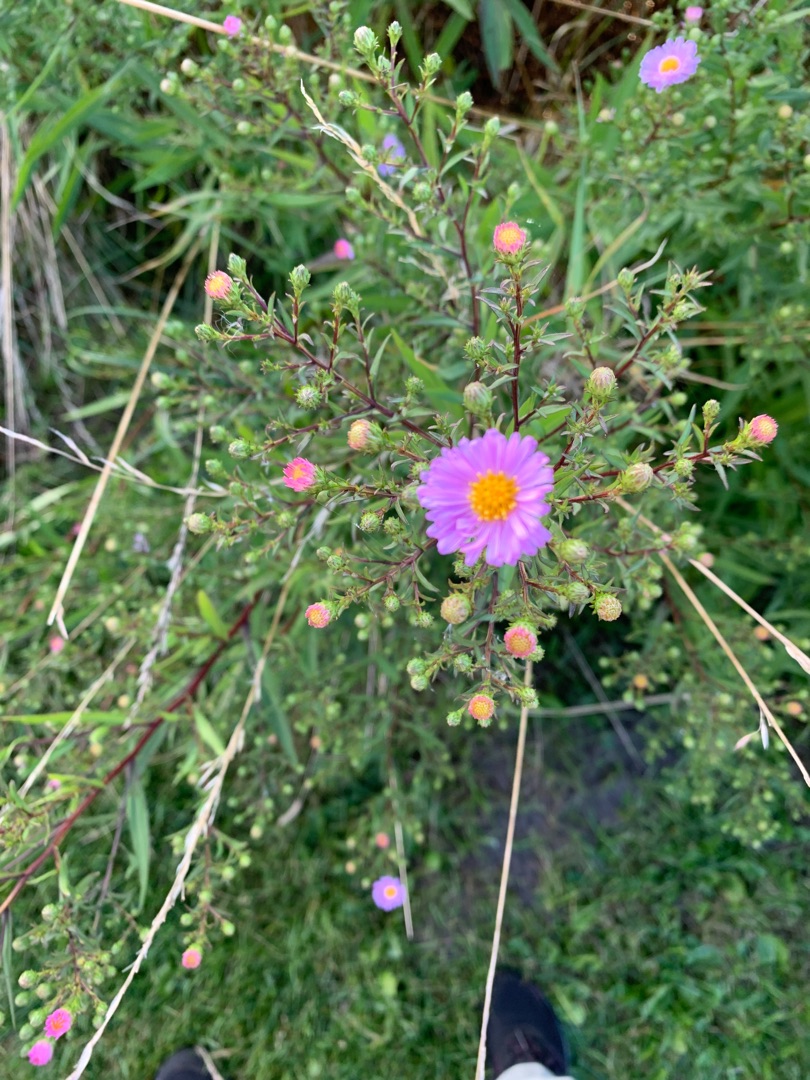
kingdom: Plantae
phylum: Tracheophyta
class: Magnoliopsida
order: Asterales
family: Asteraceae
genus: Symphyotrichum
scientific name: Symphyotrichum versicolor
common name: Broget asters
